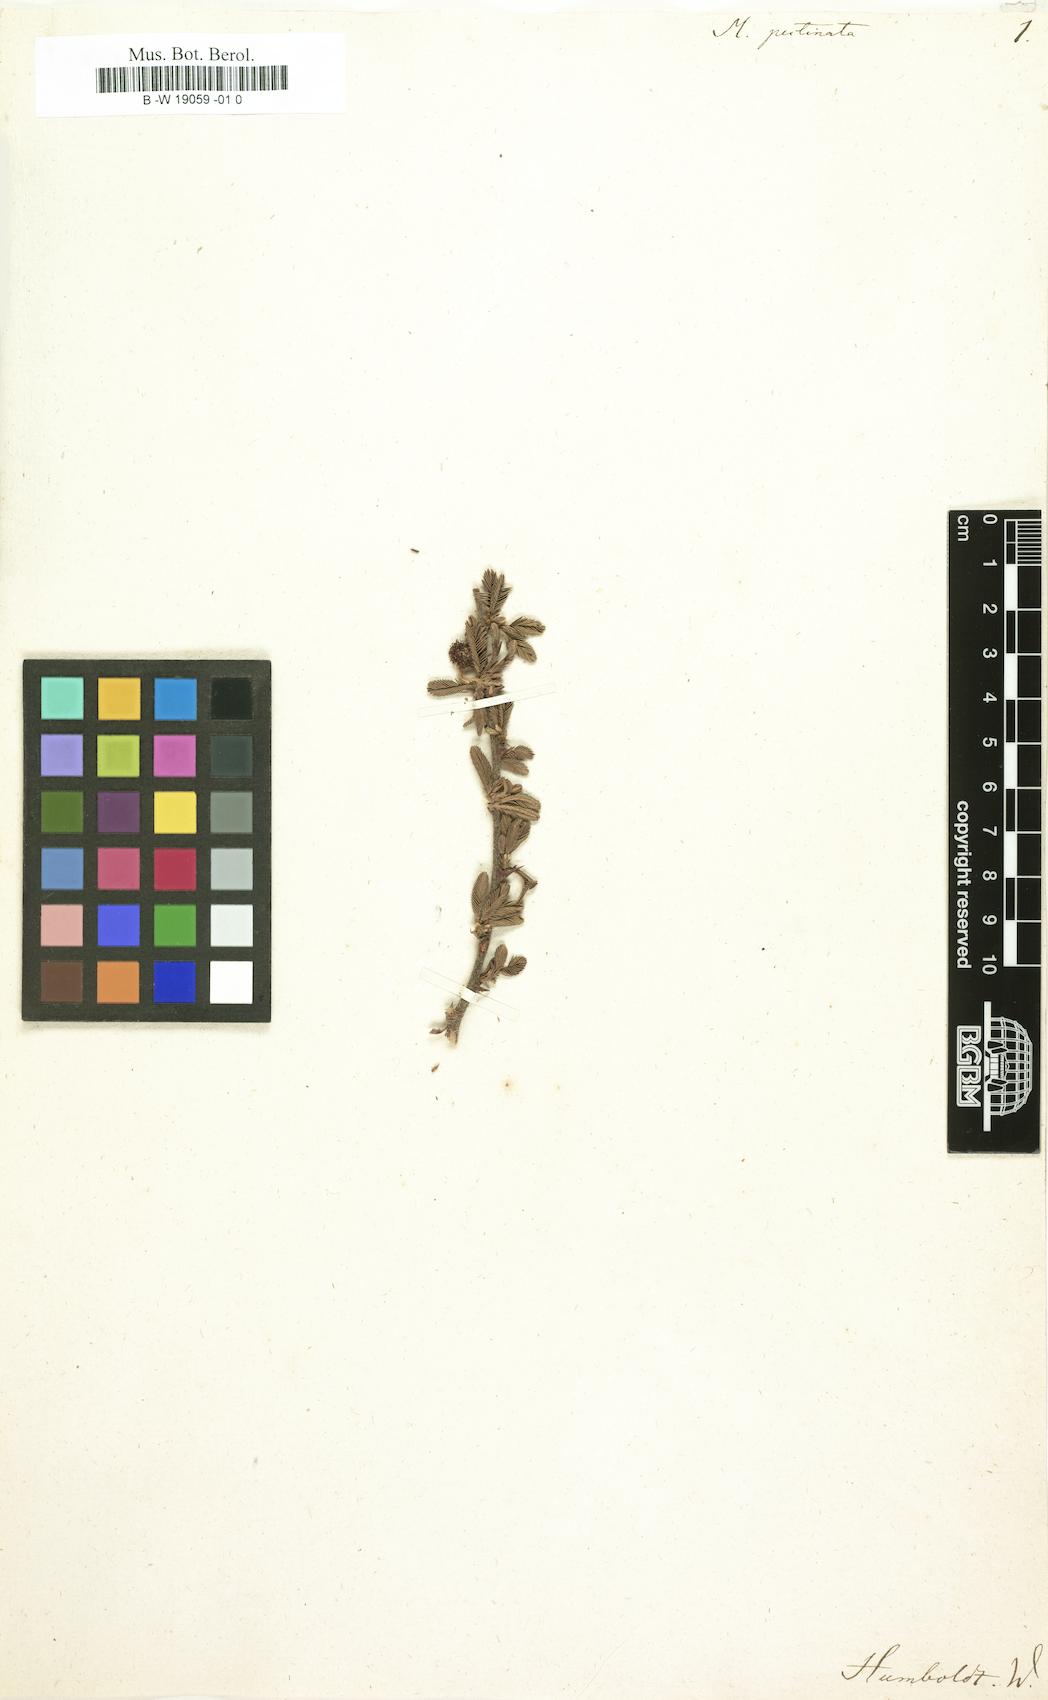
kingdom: Plantae
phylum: Tracheophyta
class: Magnoliopsida
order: Fabales
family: Fabaceae
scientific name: Fabaceae
